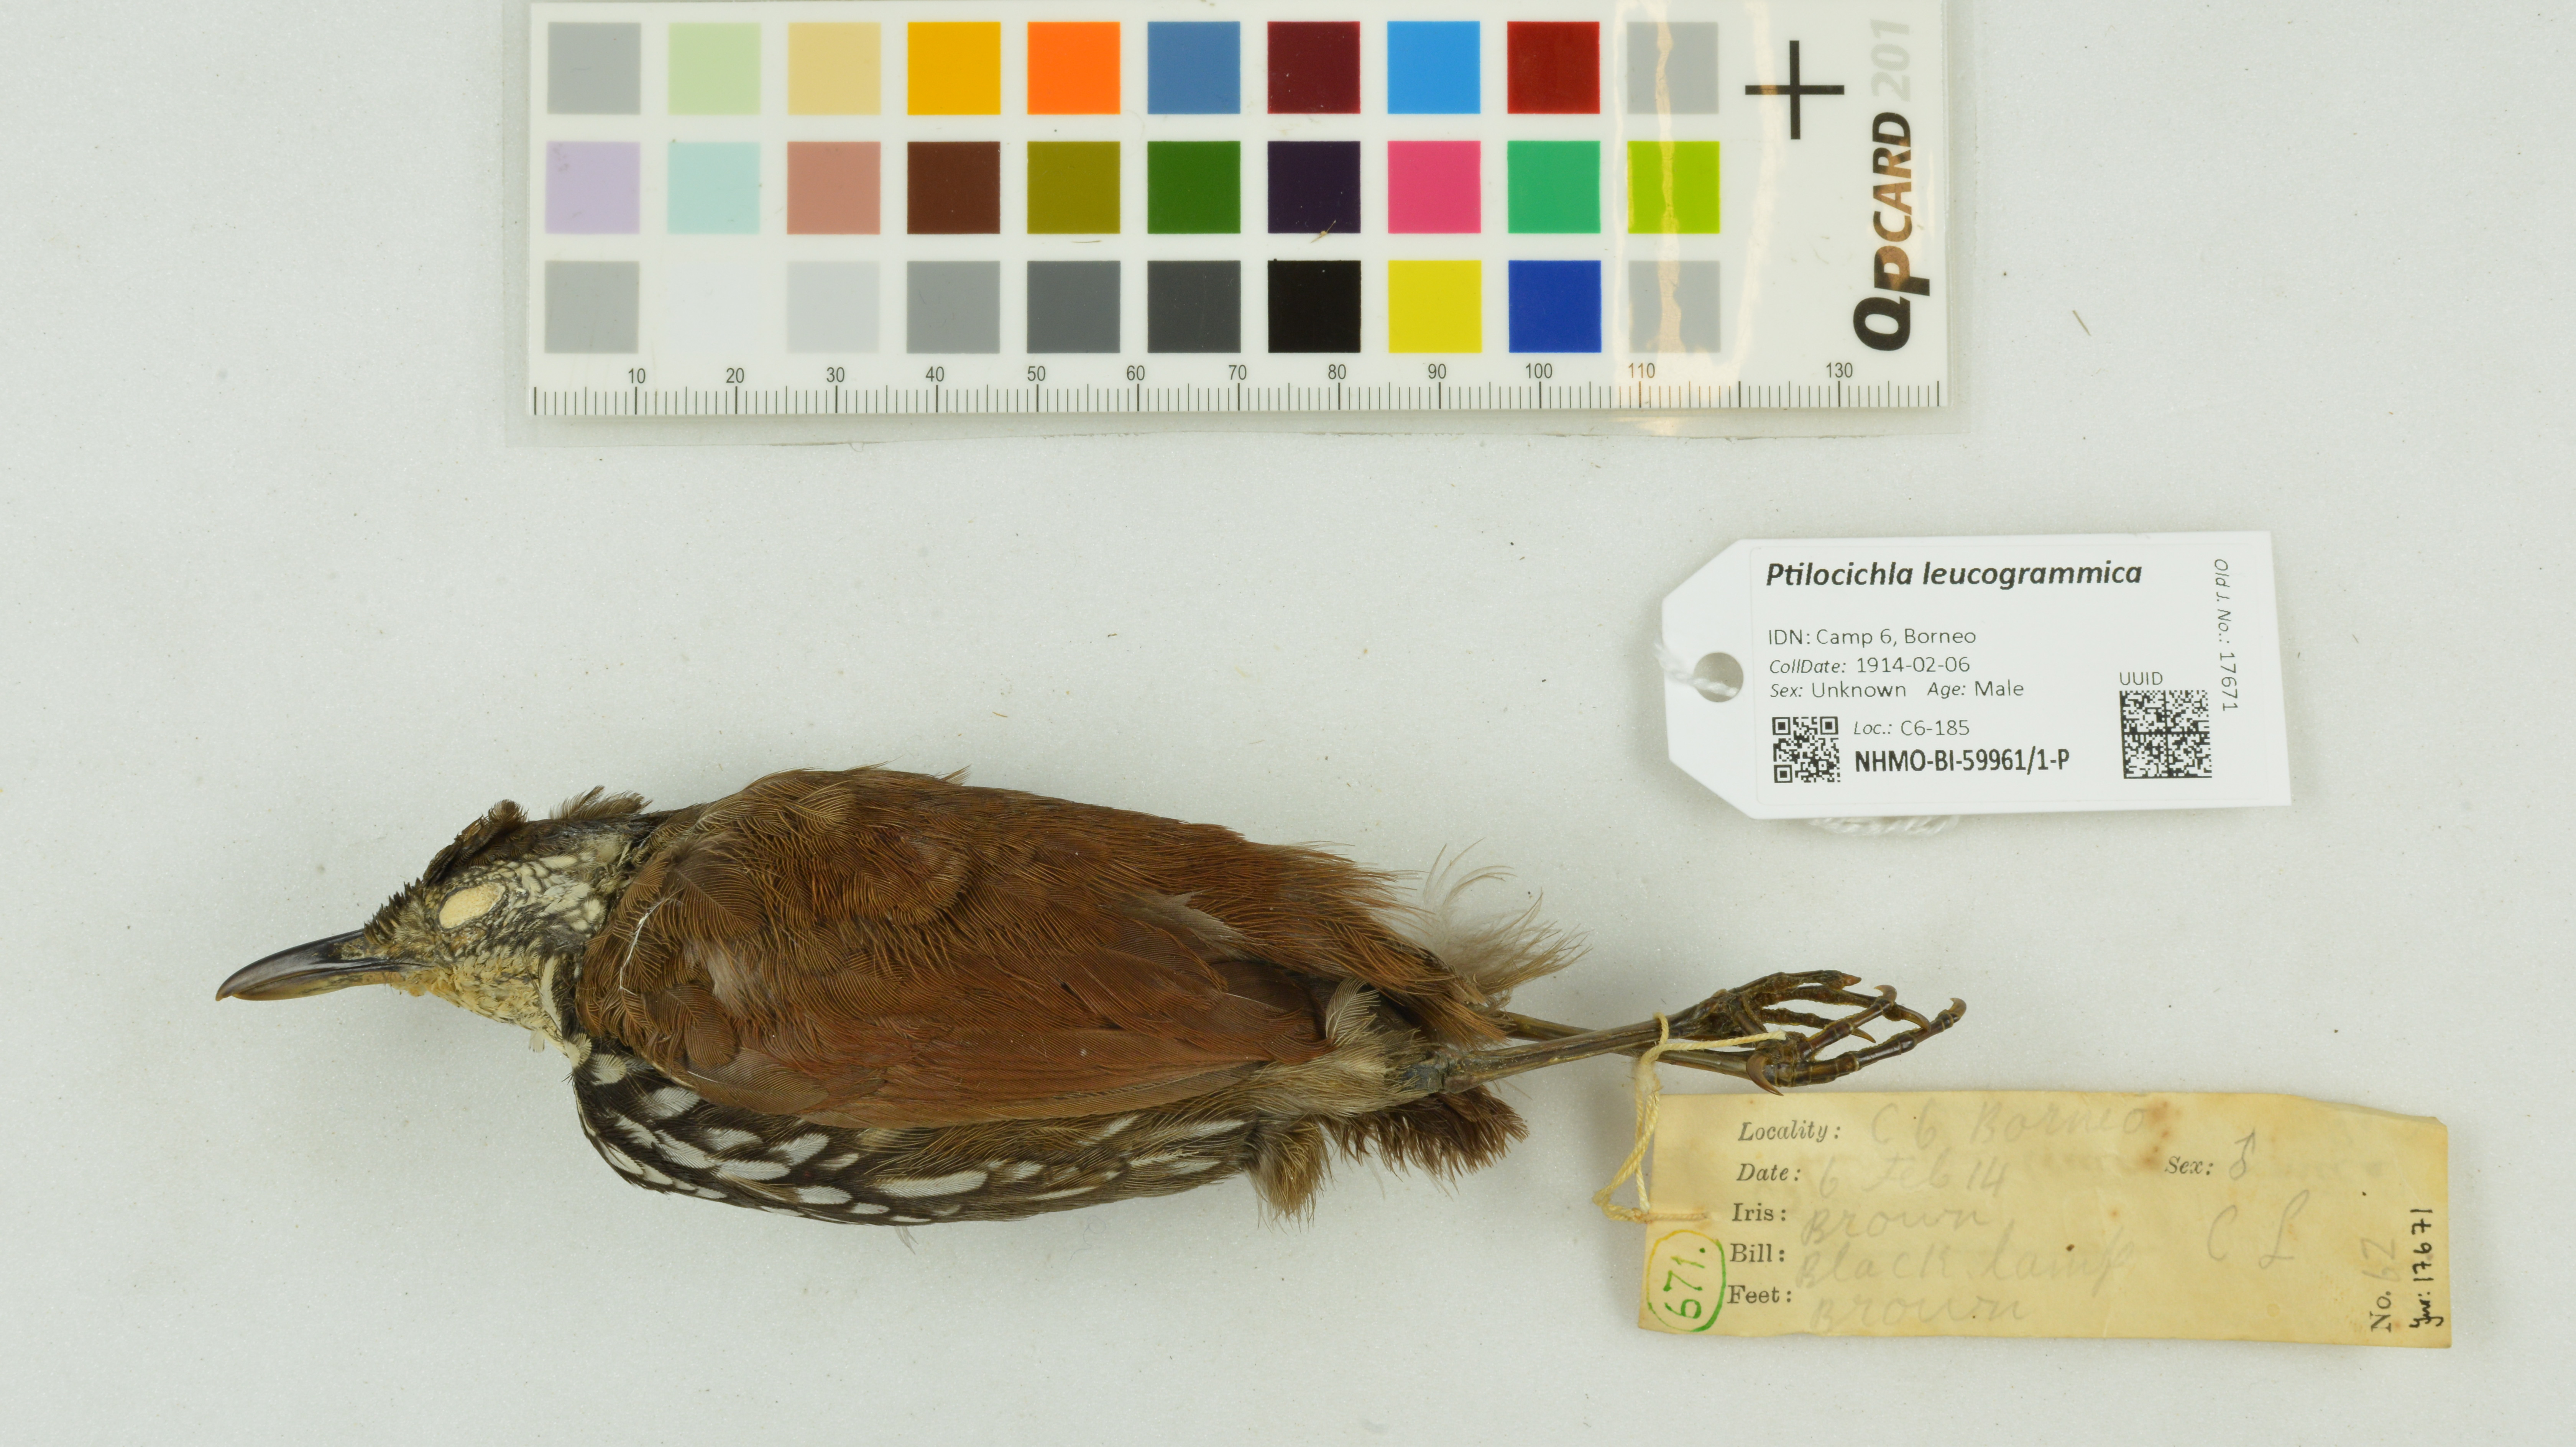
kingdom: Animalia
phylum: Chordata
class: Aves
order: Passeriformes
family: Pellorneidae
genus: Ptilocichla
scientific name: Ptilocichla leucogrammica
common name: Bornean wren-babbler
